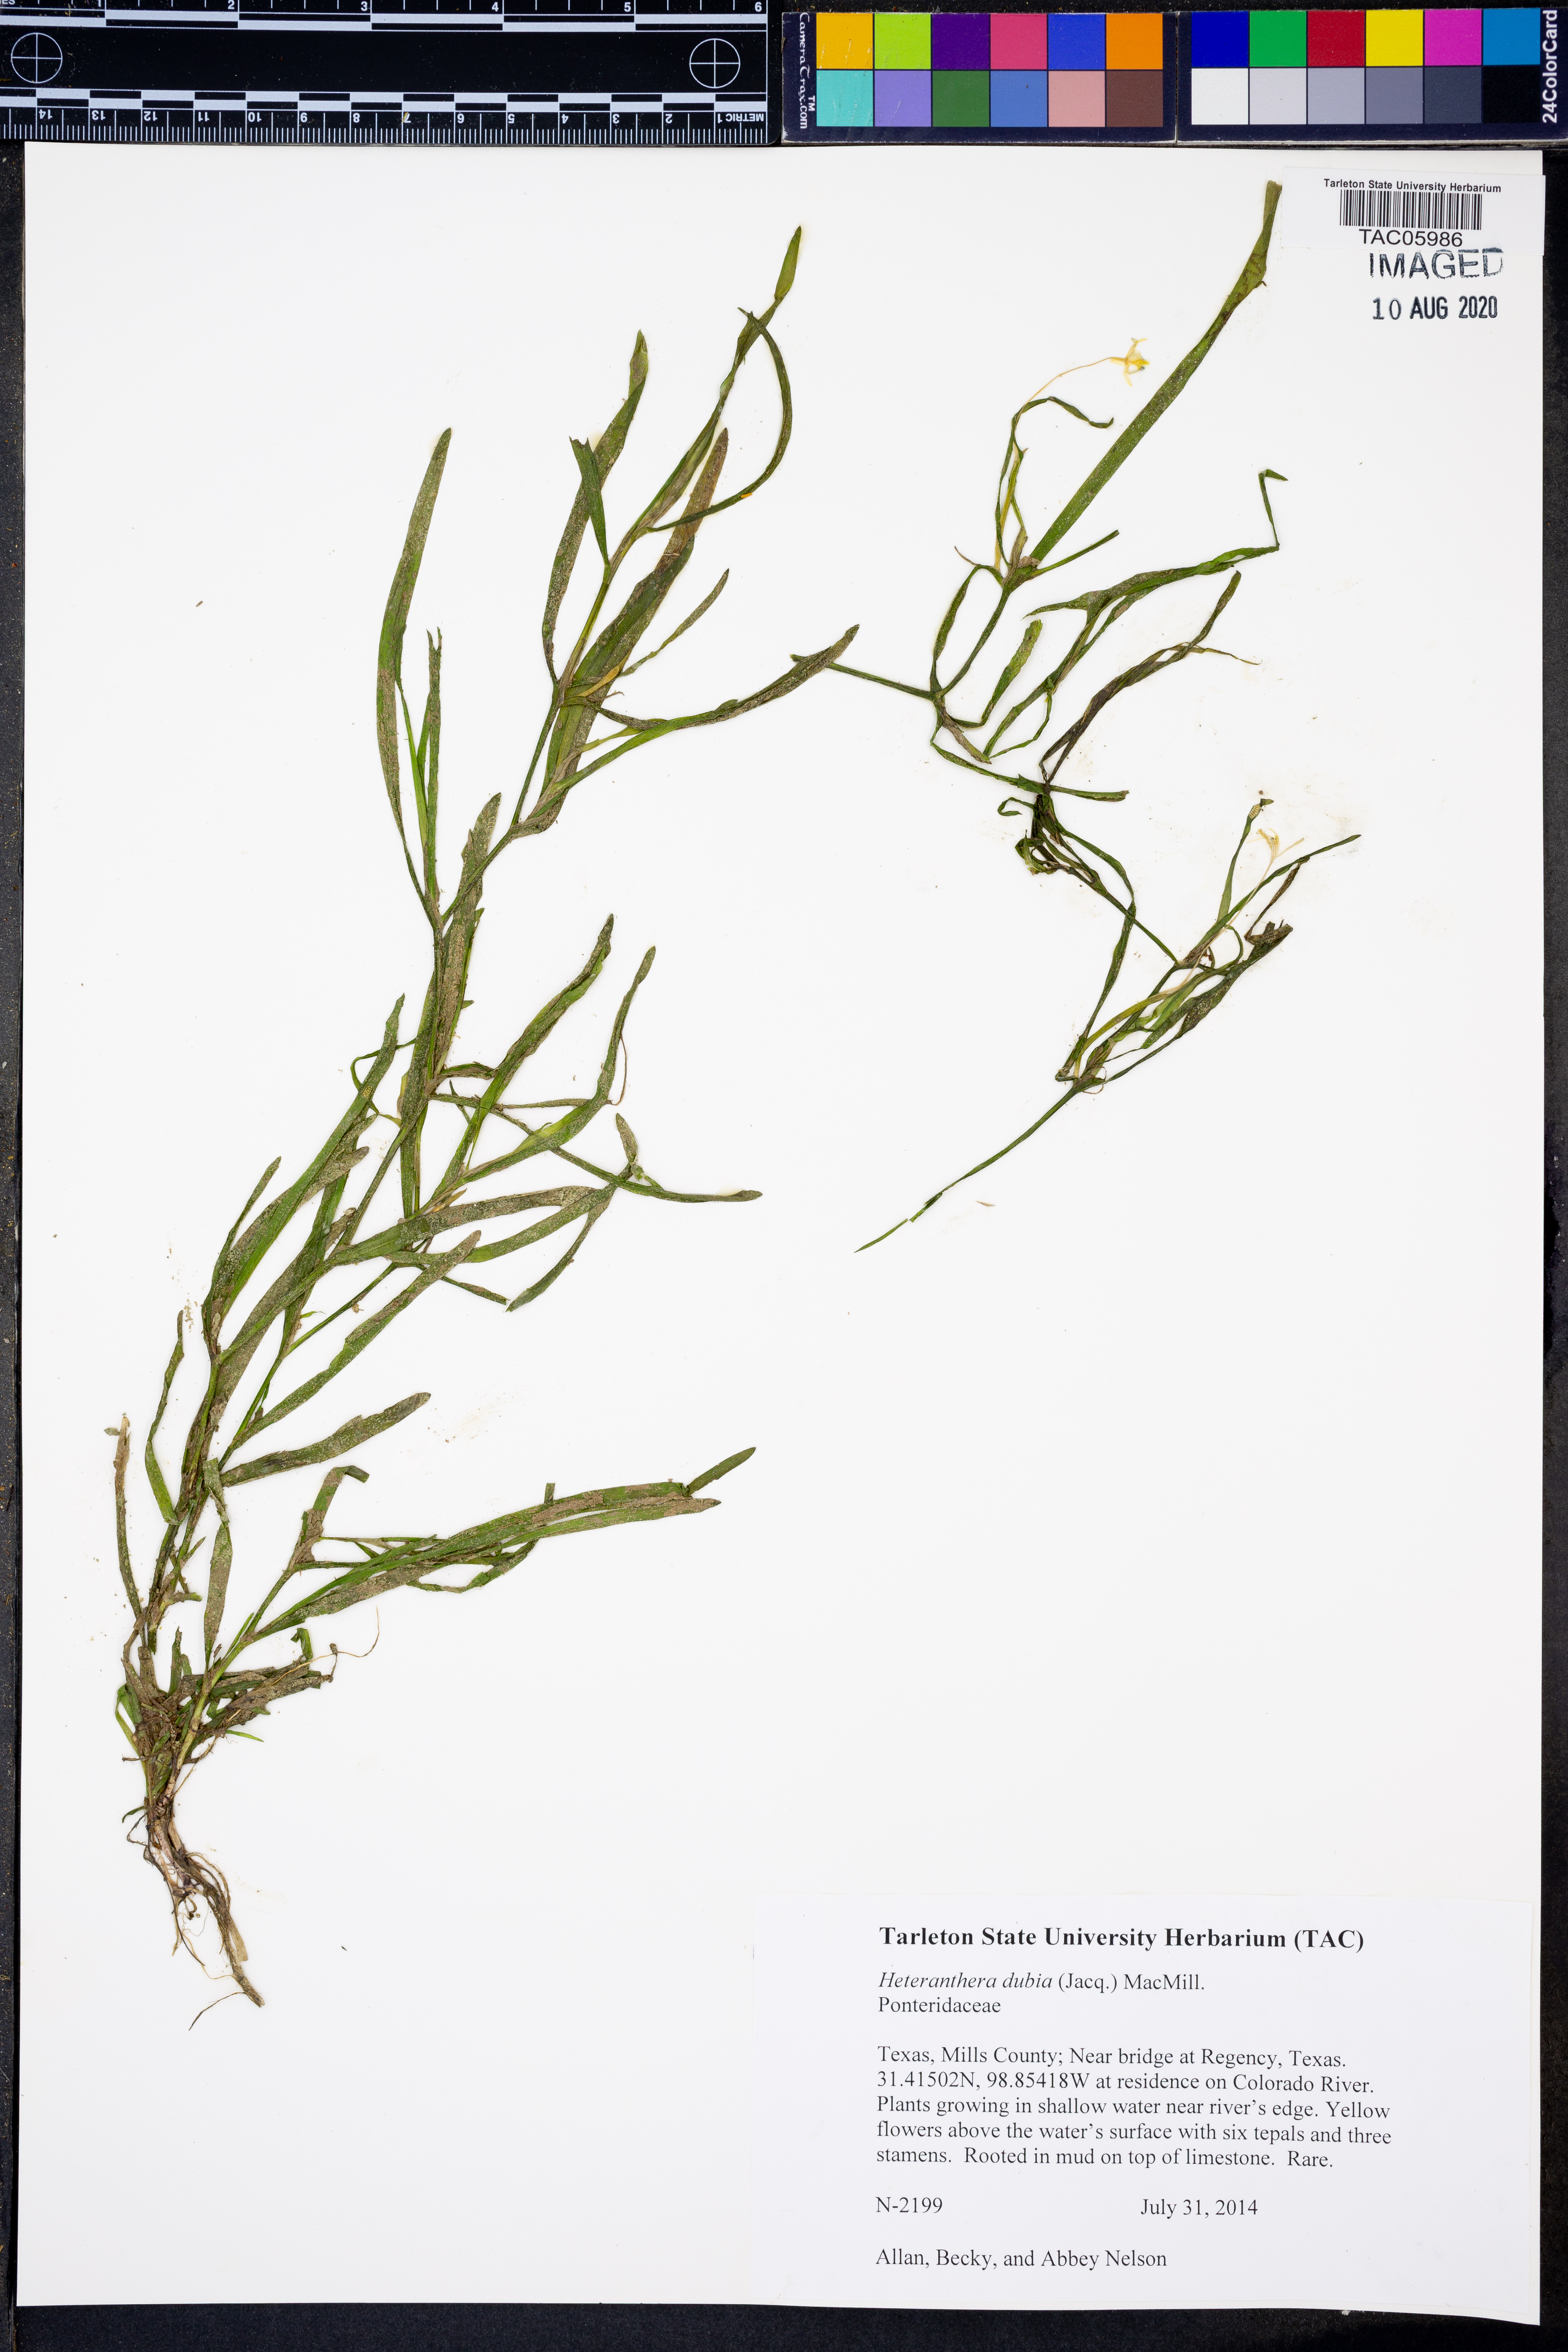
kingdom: Plantae
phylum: Tracheophyta
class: Liliopsida
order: Commelinales
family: Pontederiaceae
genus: Heteranthera
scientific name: Heteranthera dubia
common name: Grass-leaved mud plantain
